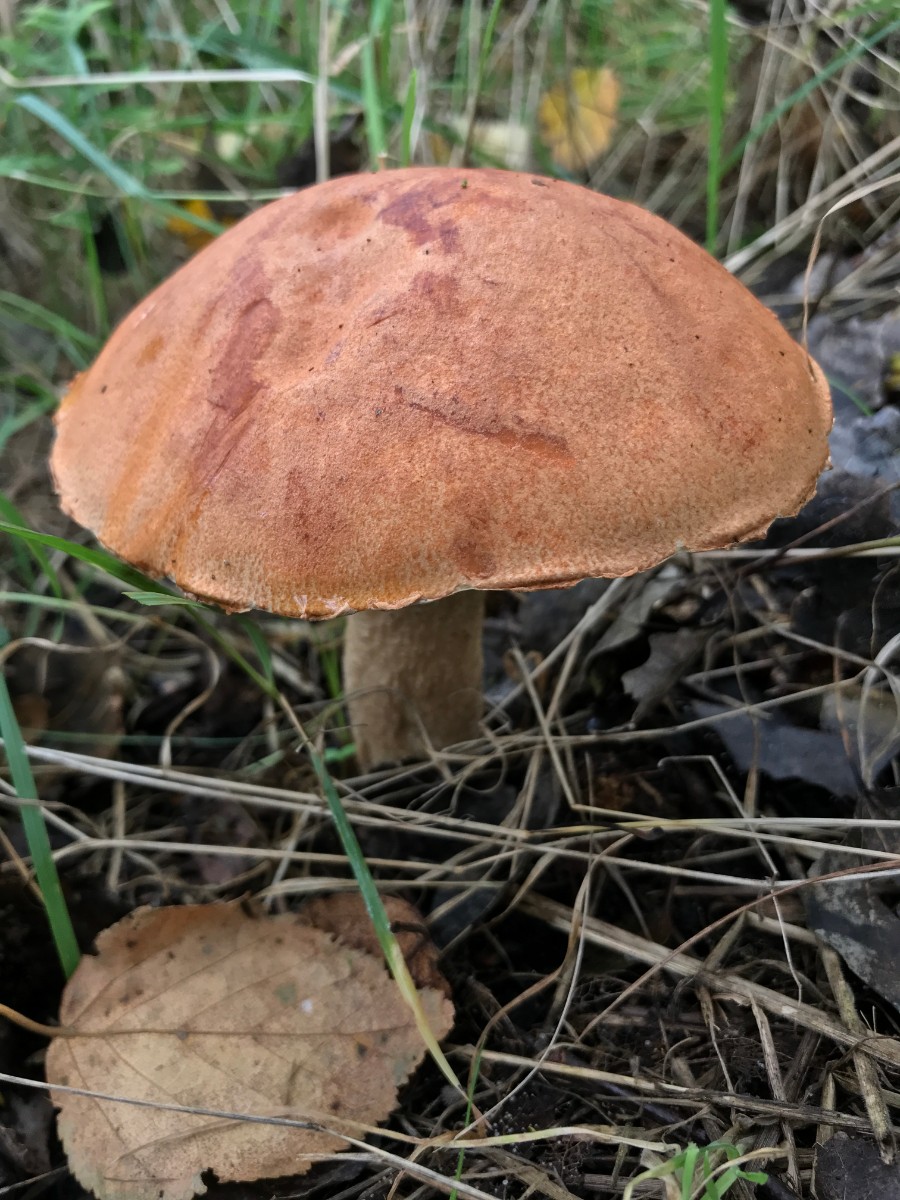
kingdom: Fungi
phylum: Basidiomycota
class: Agaricomycetes
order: Boletales
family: Boletaceae
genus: Leccinum
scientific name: Leccinum albostipitatum
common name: aspe-skælrørhat
